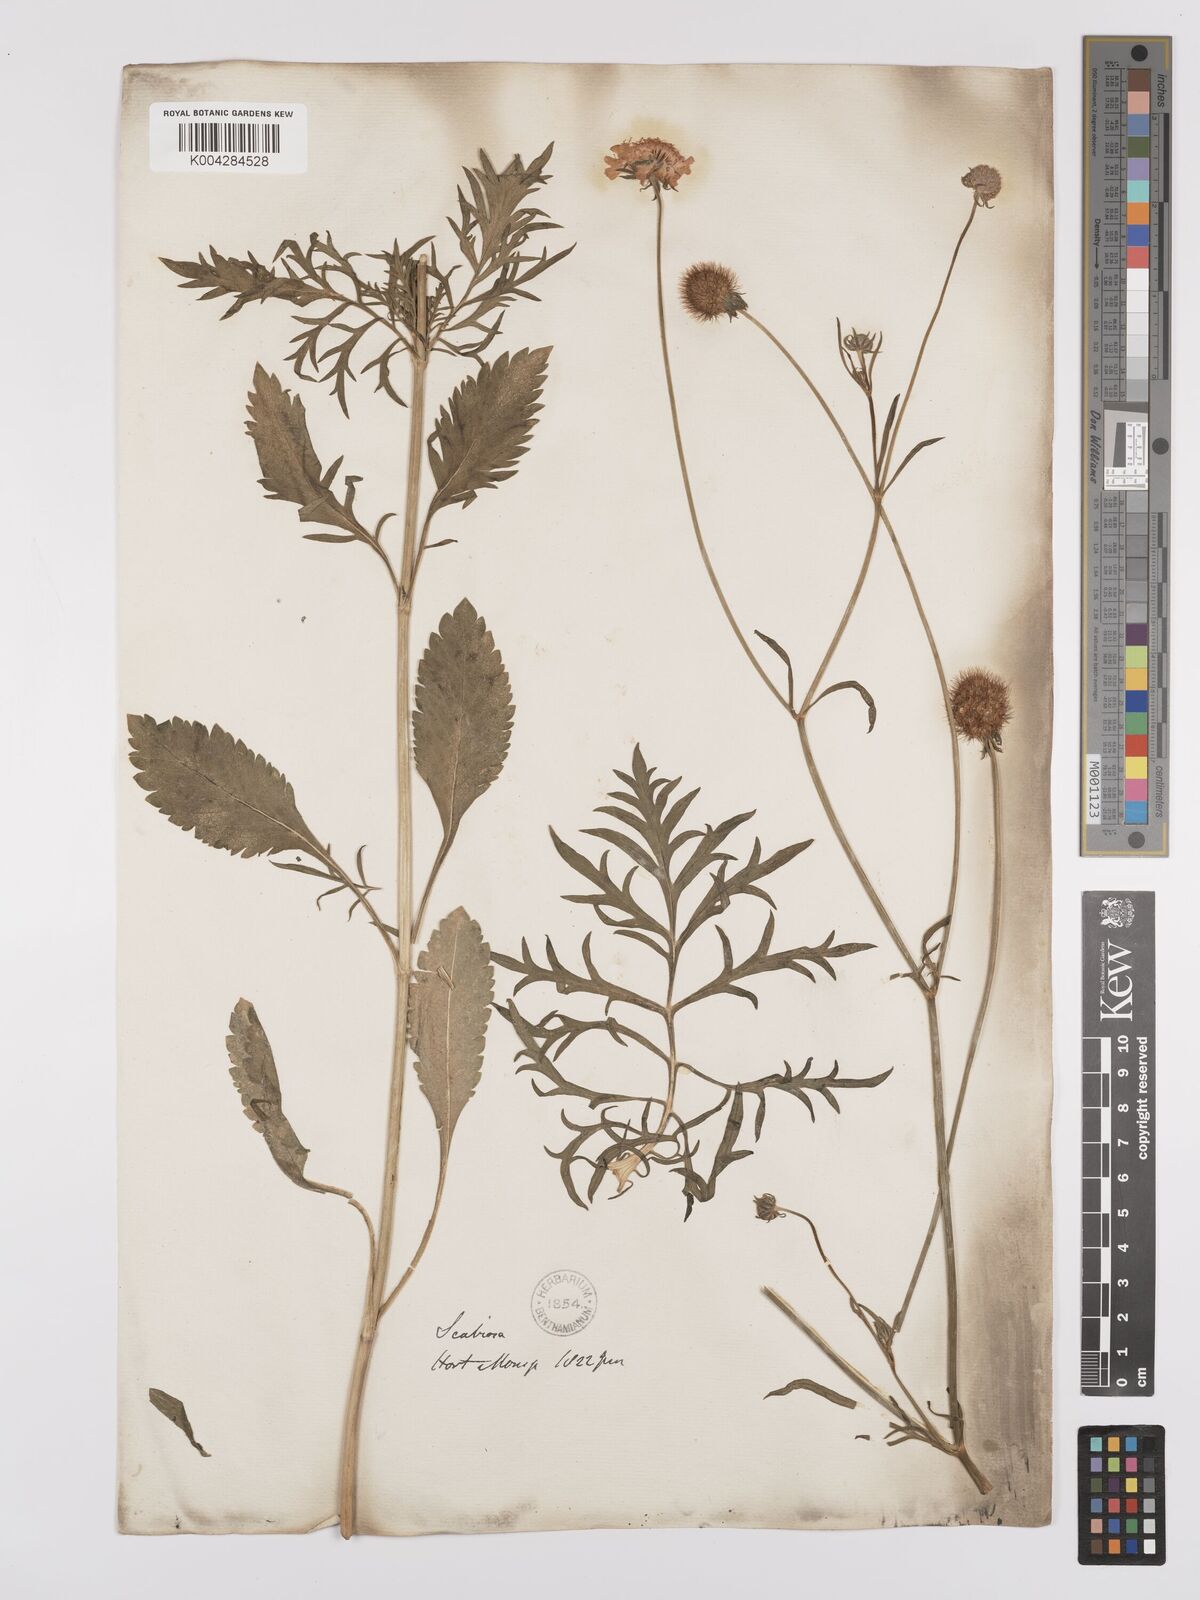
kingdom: Plantae
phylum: Tracheophyta
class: Magnoliopsida
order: Dipsacales
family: Caprifoliaceae
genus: Scabiosa
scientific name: Scabiosa triandra
